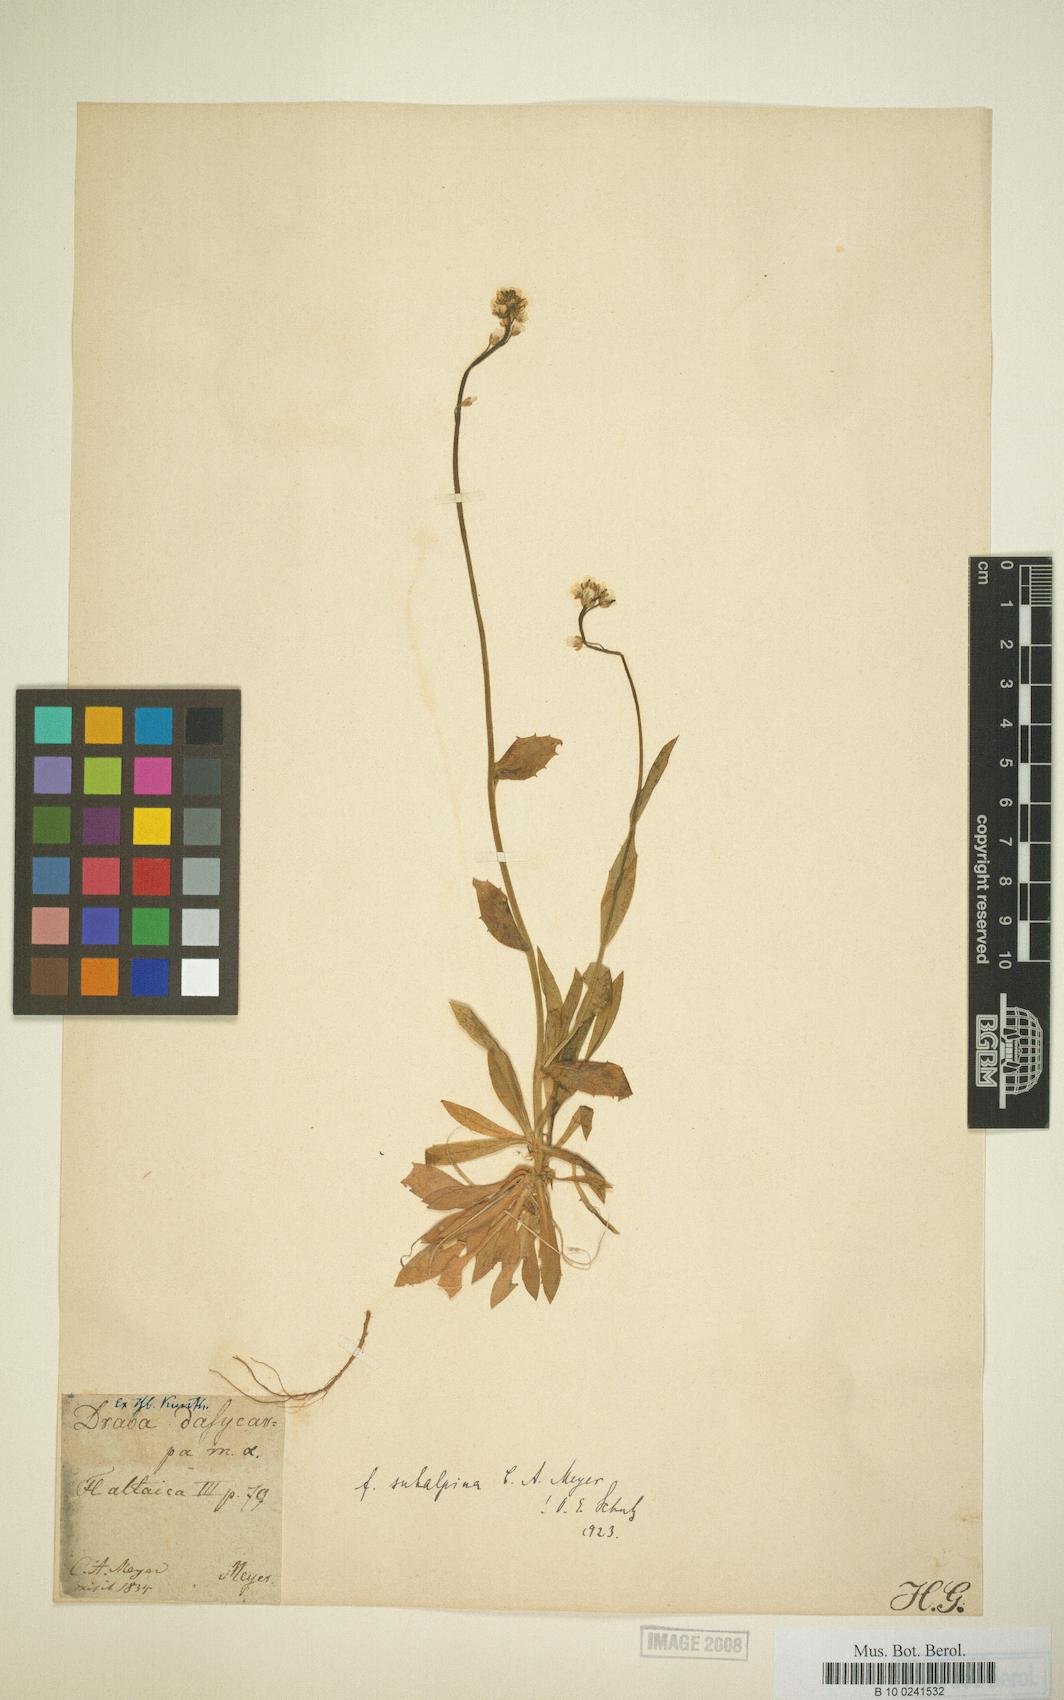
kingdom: Plantae
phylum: Tracheophyta
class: Magnoliopsida
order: Brassicales
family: Brassicaceae
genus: Draba
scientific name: Draba subamplexicaulis
